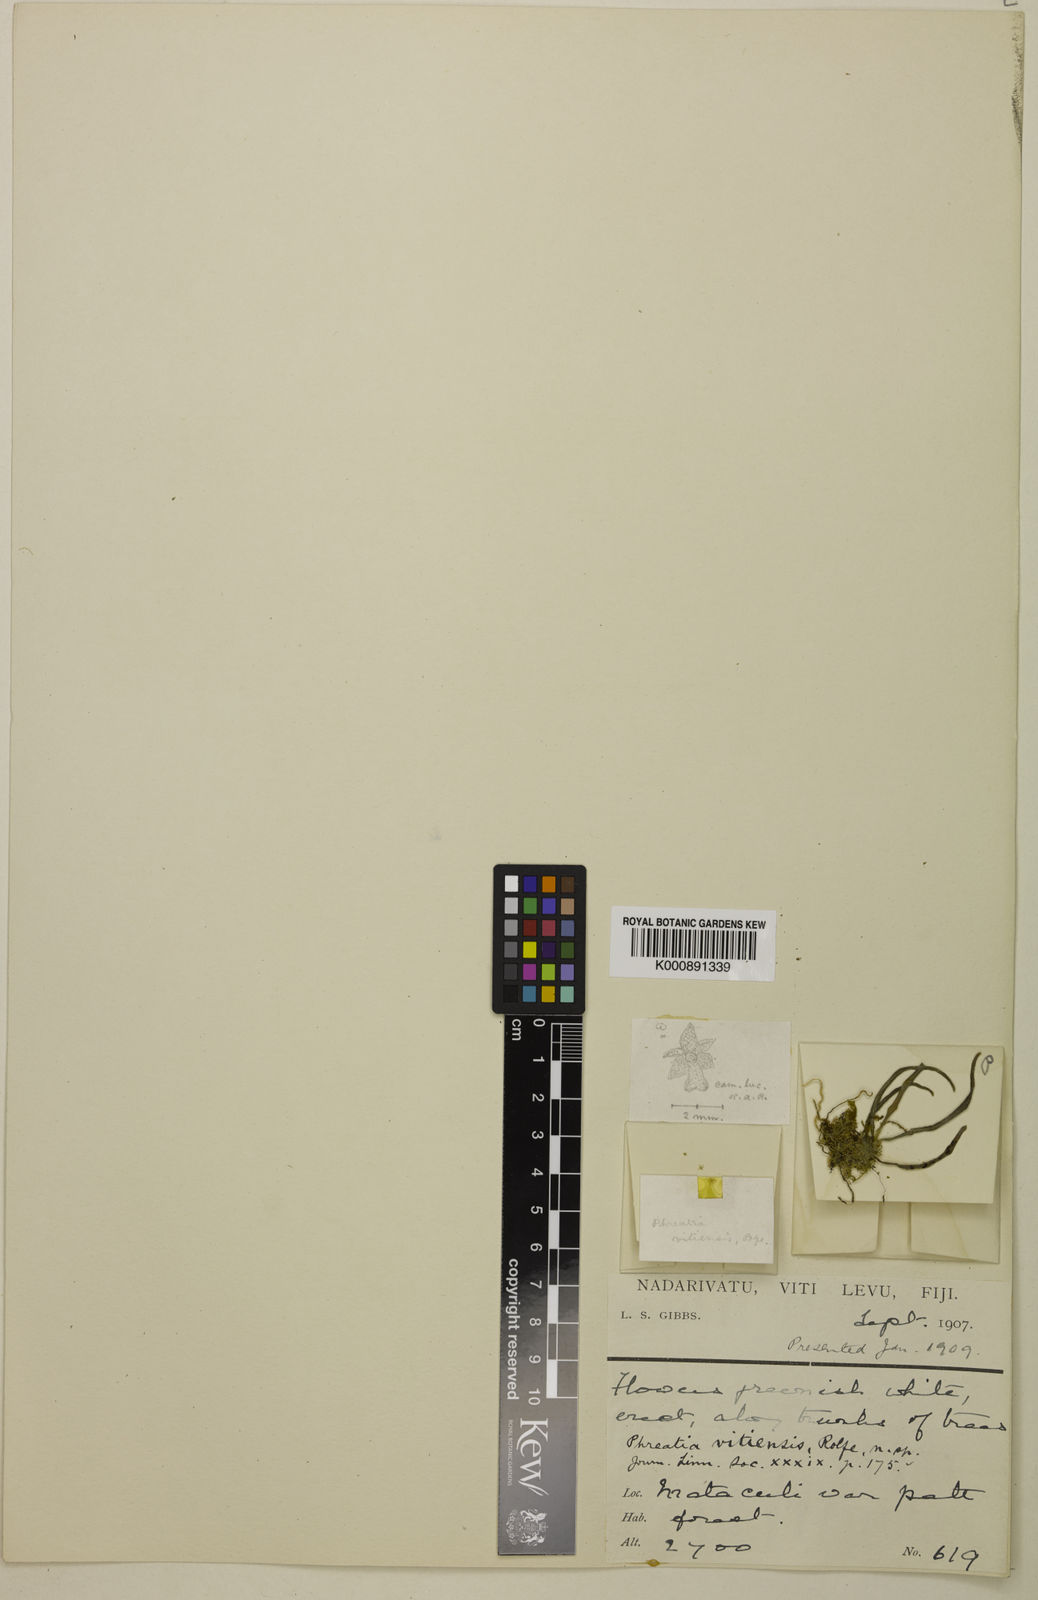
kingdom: Plantae
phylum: Tracheophyta
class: Liliopsida
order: Asparagales
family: Orchidaceae
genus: Phreatia
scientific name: Phreatia limenophylax
